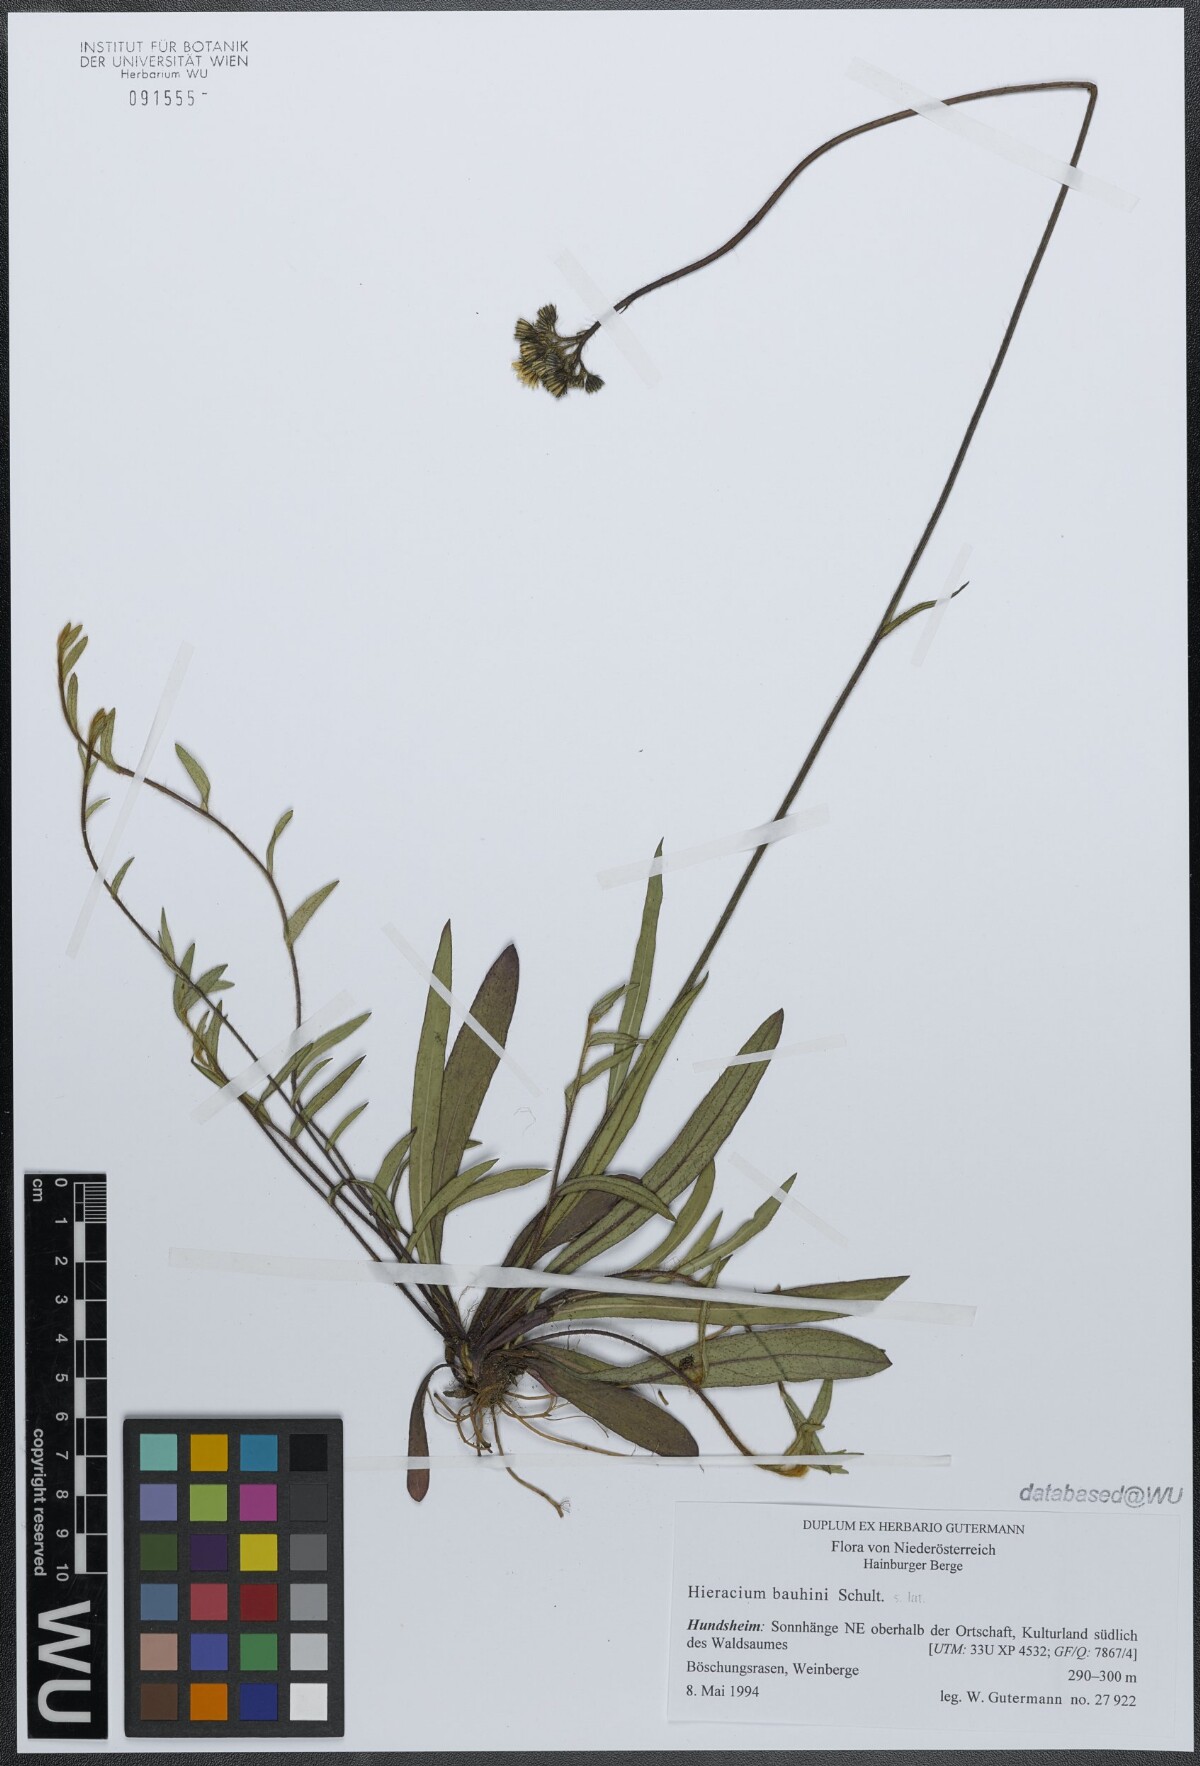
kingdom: Plantae
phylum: Tracheophyta
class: Magnoliopsida
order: Asterales
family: Asteraceae
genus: Pilosella
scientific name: Pilosella bauhini
